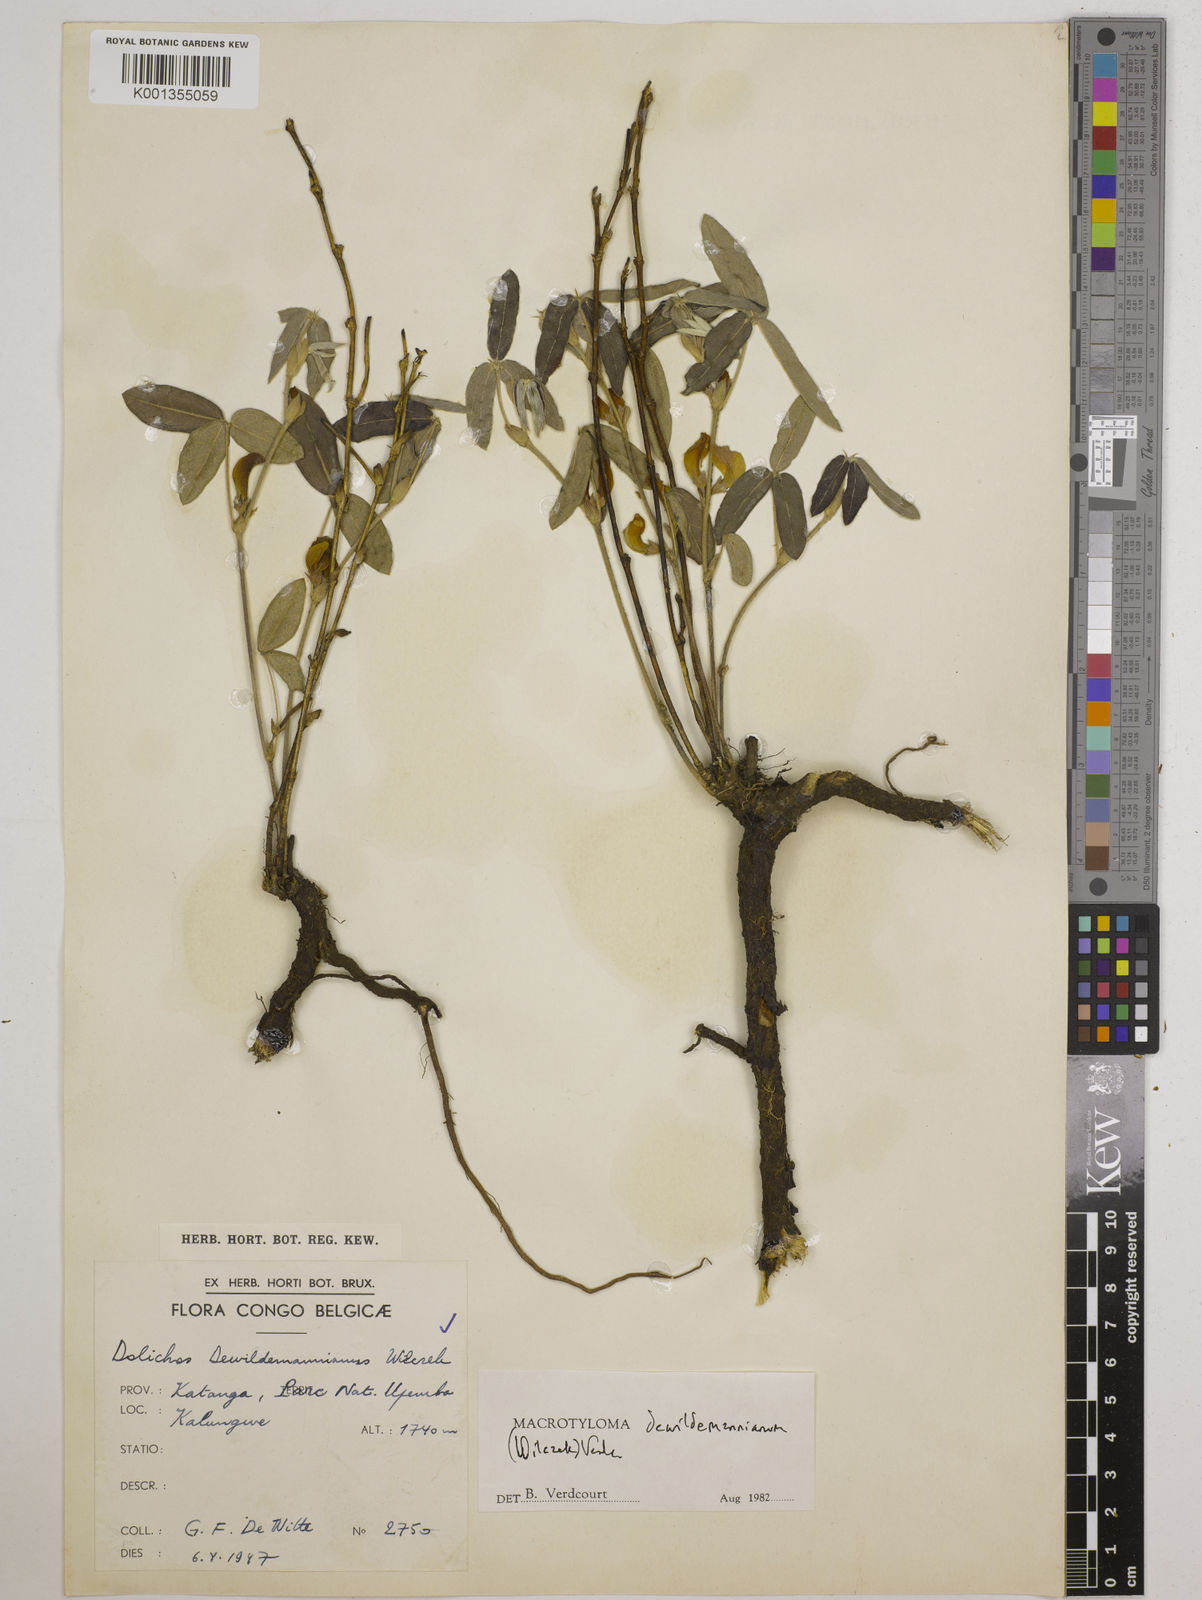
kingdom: Plantae
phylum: Tracheophyta
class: Magnoliopsida
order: Fabales
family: Fabaceae
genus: Macrotyloma
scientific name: Macrotyloma dewildemanianum
